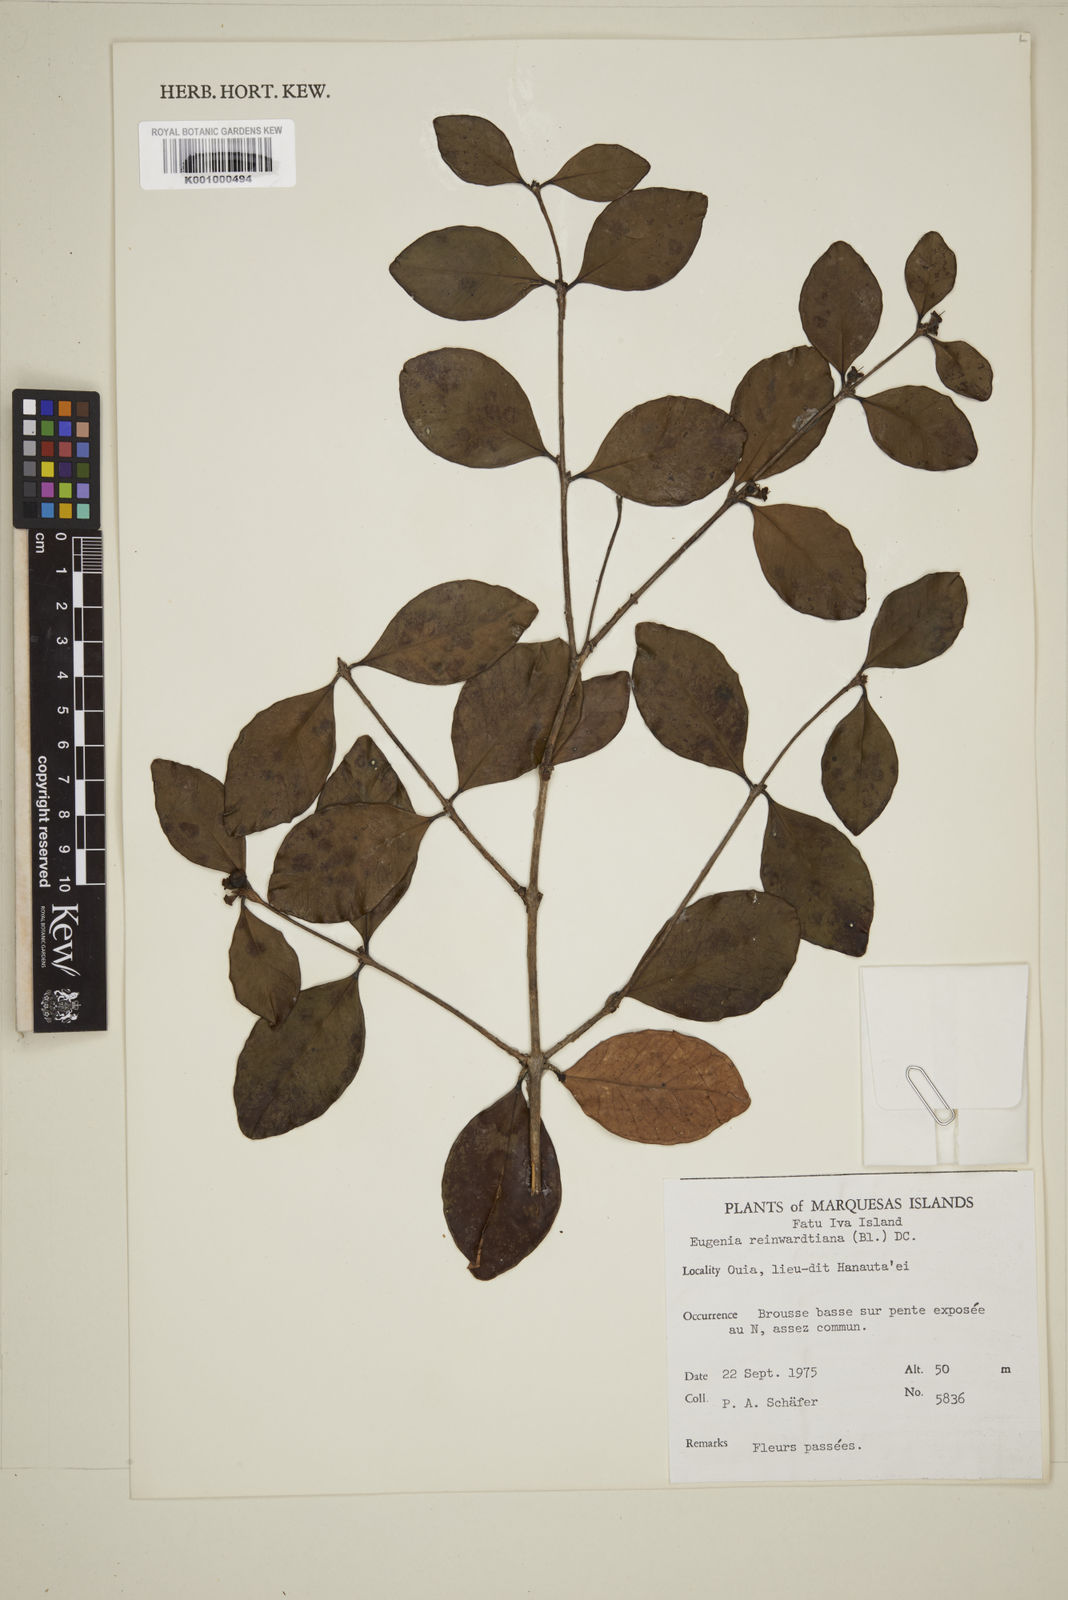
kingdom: Plantae
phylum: Tracheophyta
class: Magnoliopsida
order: Myrtales
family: Myrtaceae
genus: Eugenia
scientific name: Eugenia reinwardtiana
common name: Cedar bay-cherry
